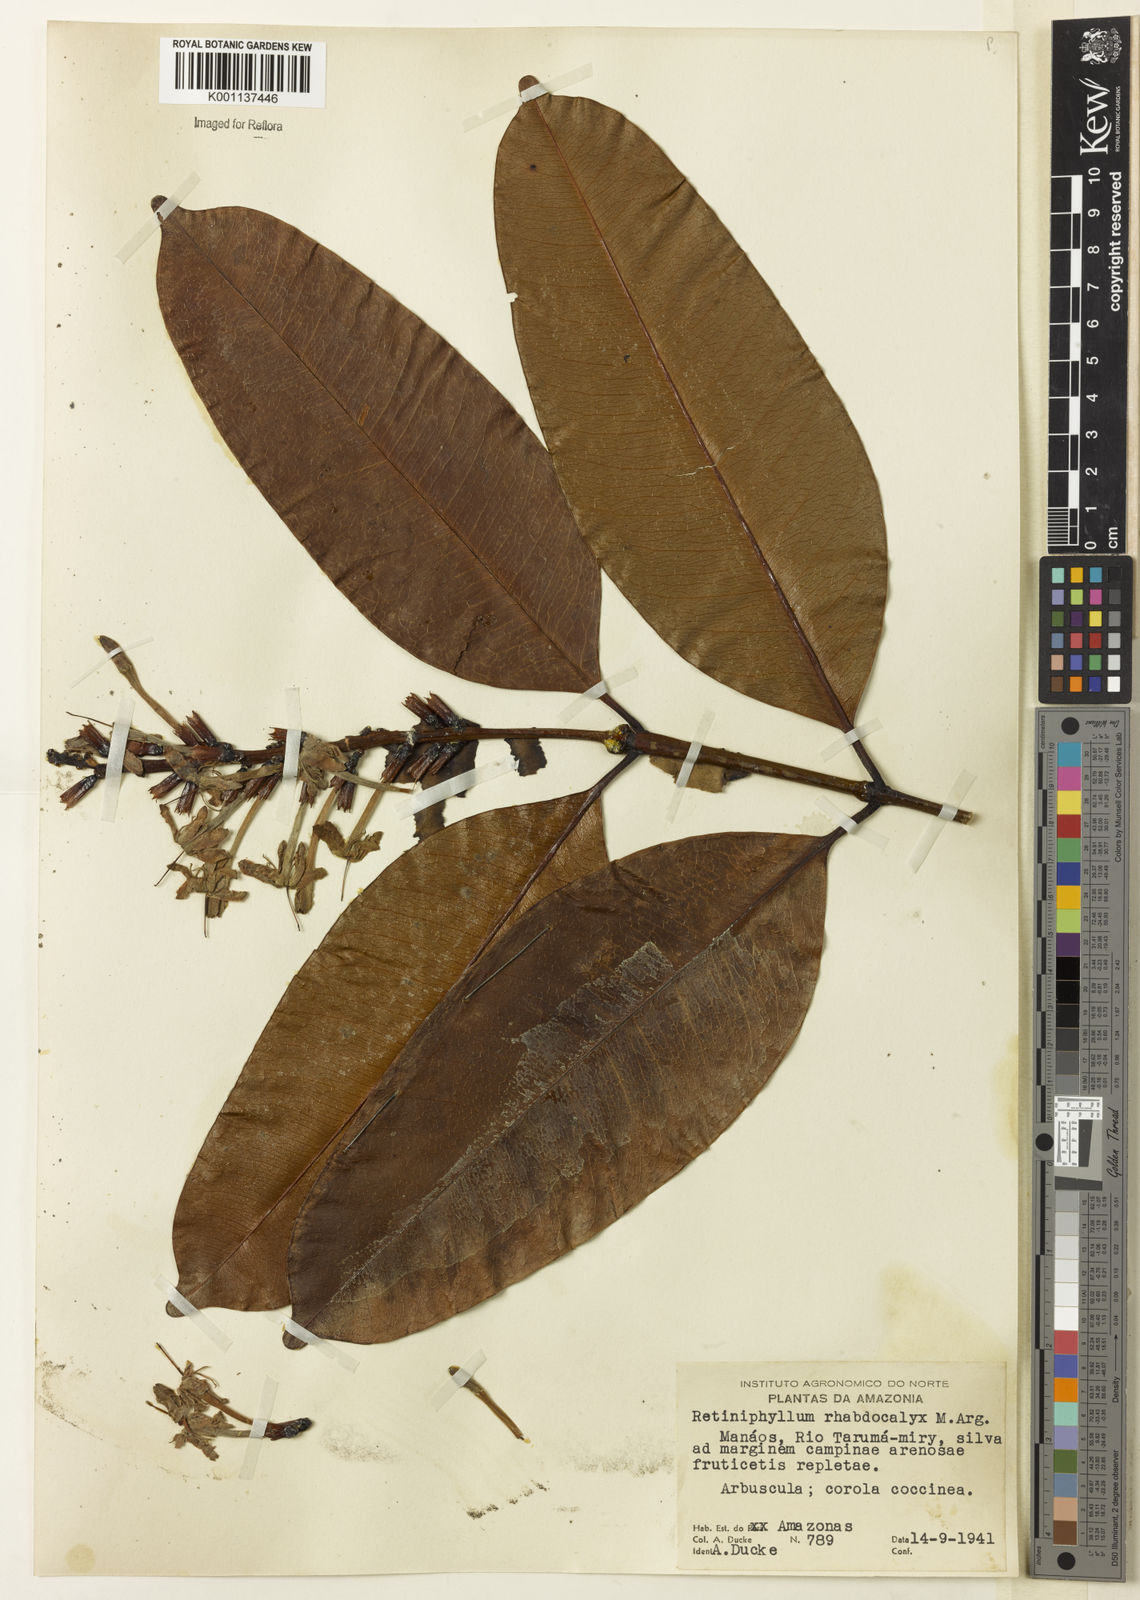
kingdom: Plantae
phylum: Tracheophyta
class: Magnoliopsida
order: Gentianales
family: Rubiaceae
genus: Retiniphyllum
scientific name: Retiniphyllum
